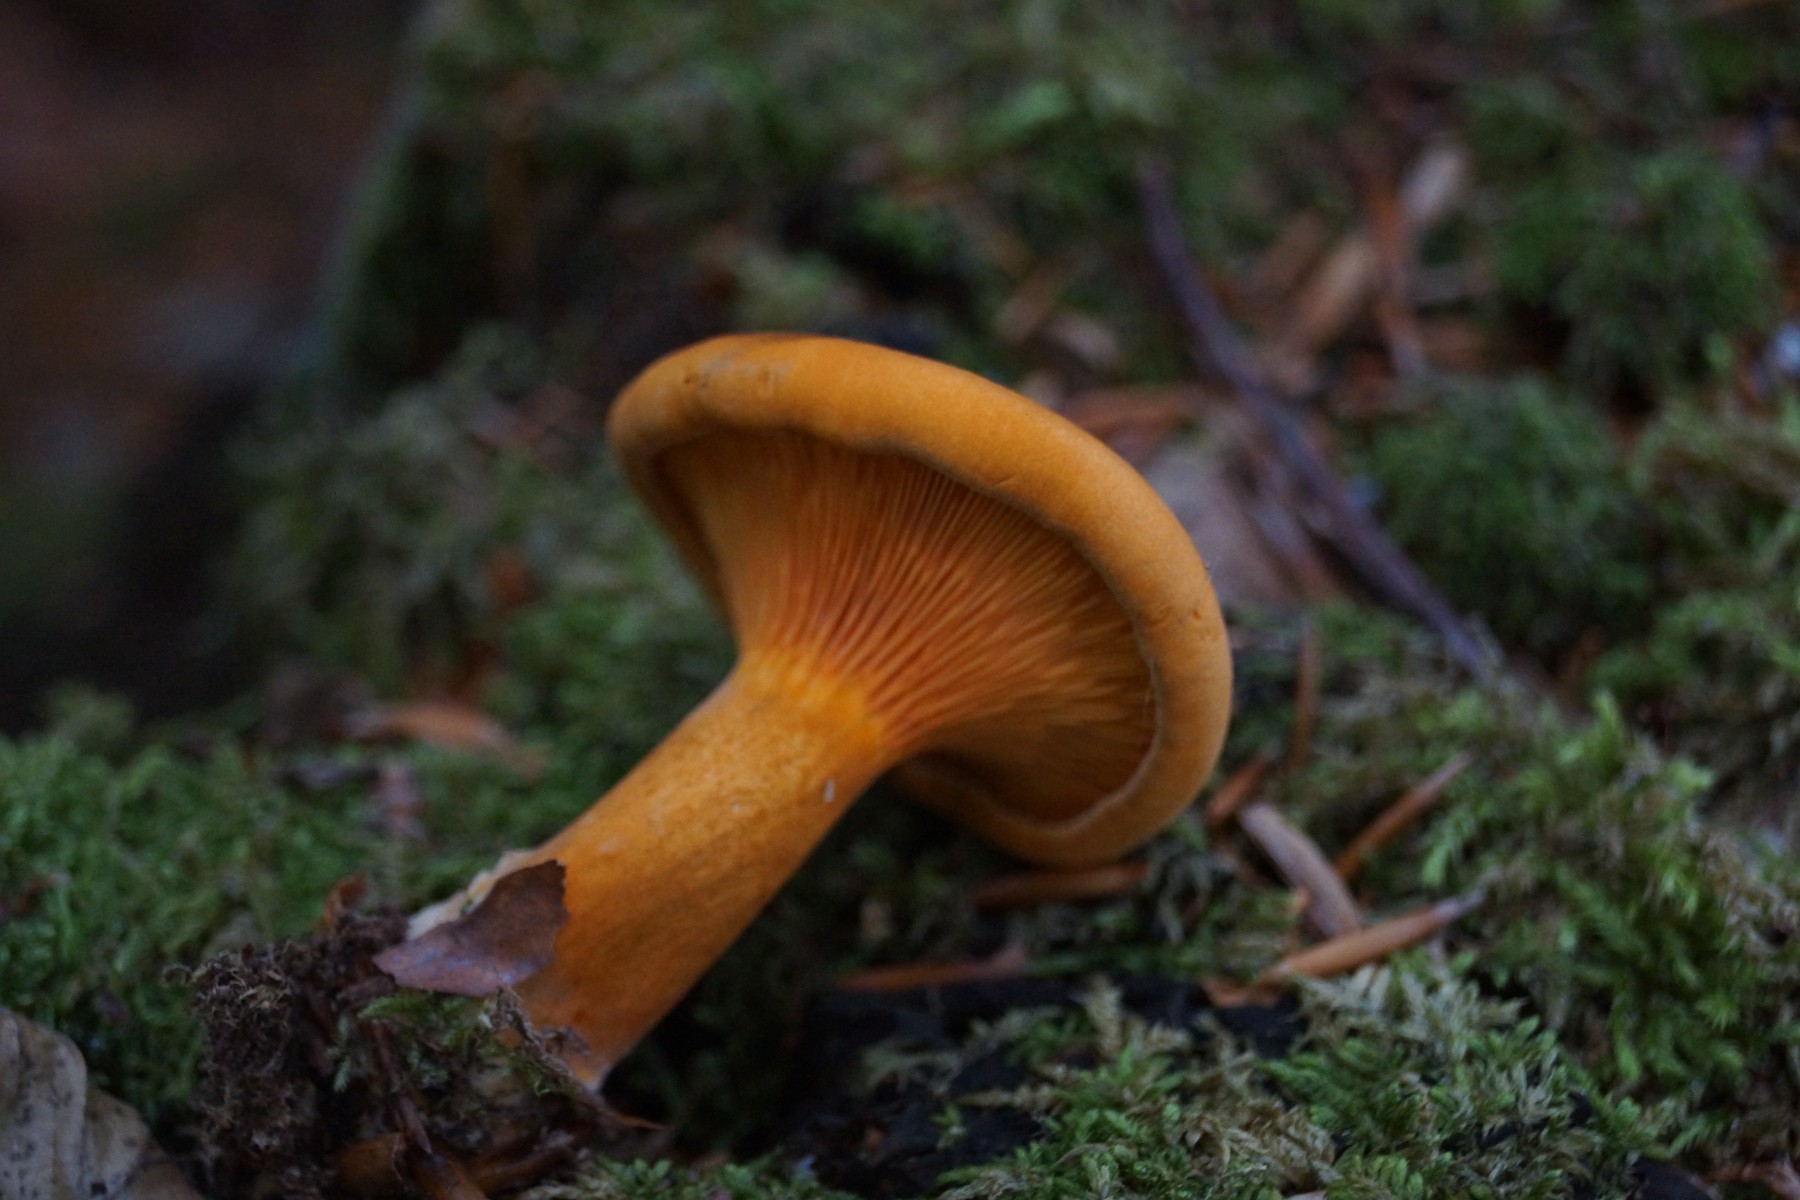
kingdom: Fungi
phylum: Basidiomycota
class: Agaricomycetes
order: Boletales
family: Hygrophoropsidaceae
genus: Hygrophoropsis
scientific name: Hygrophoropsis rufa
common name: brunfiltet orangekantarel
